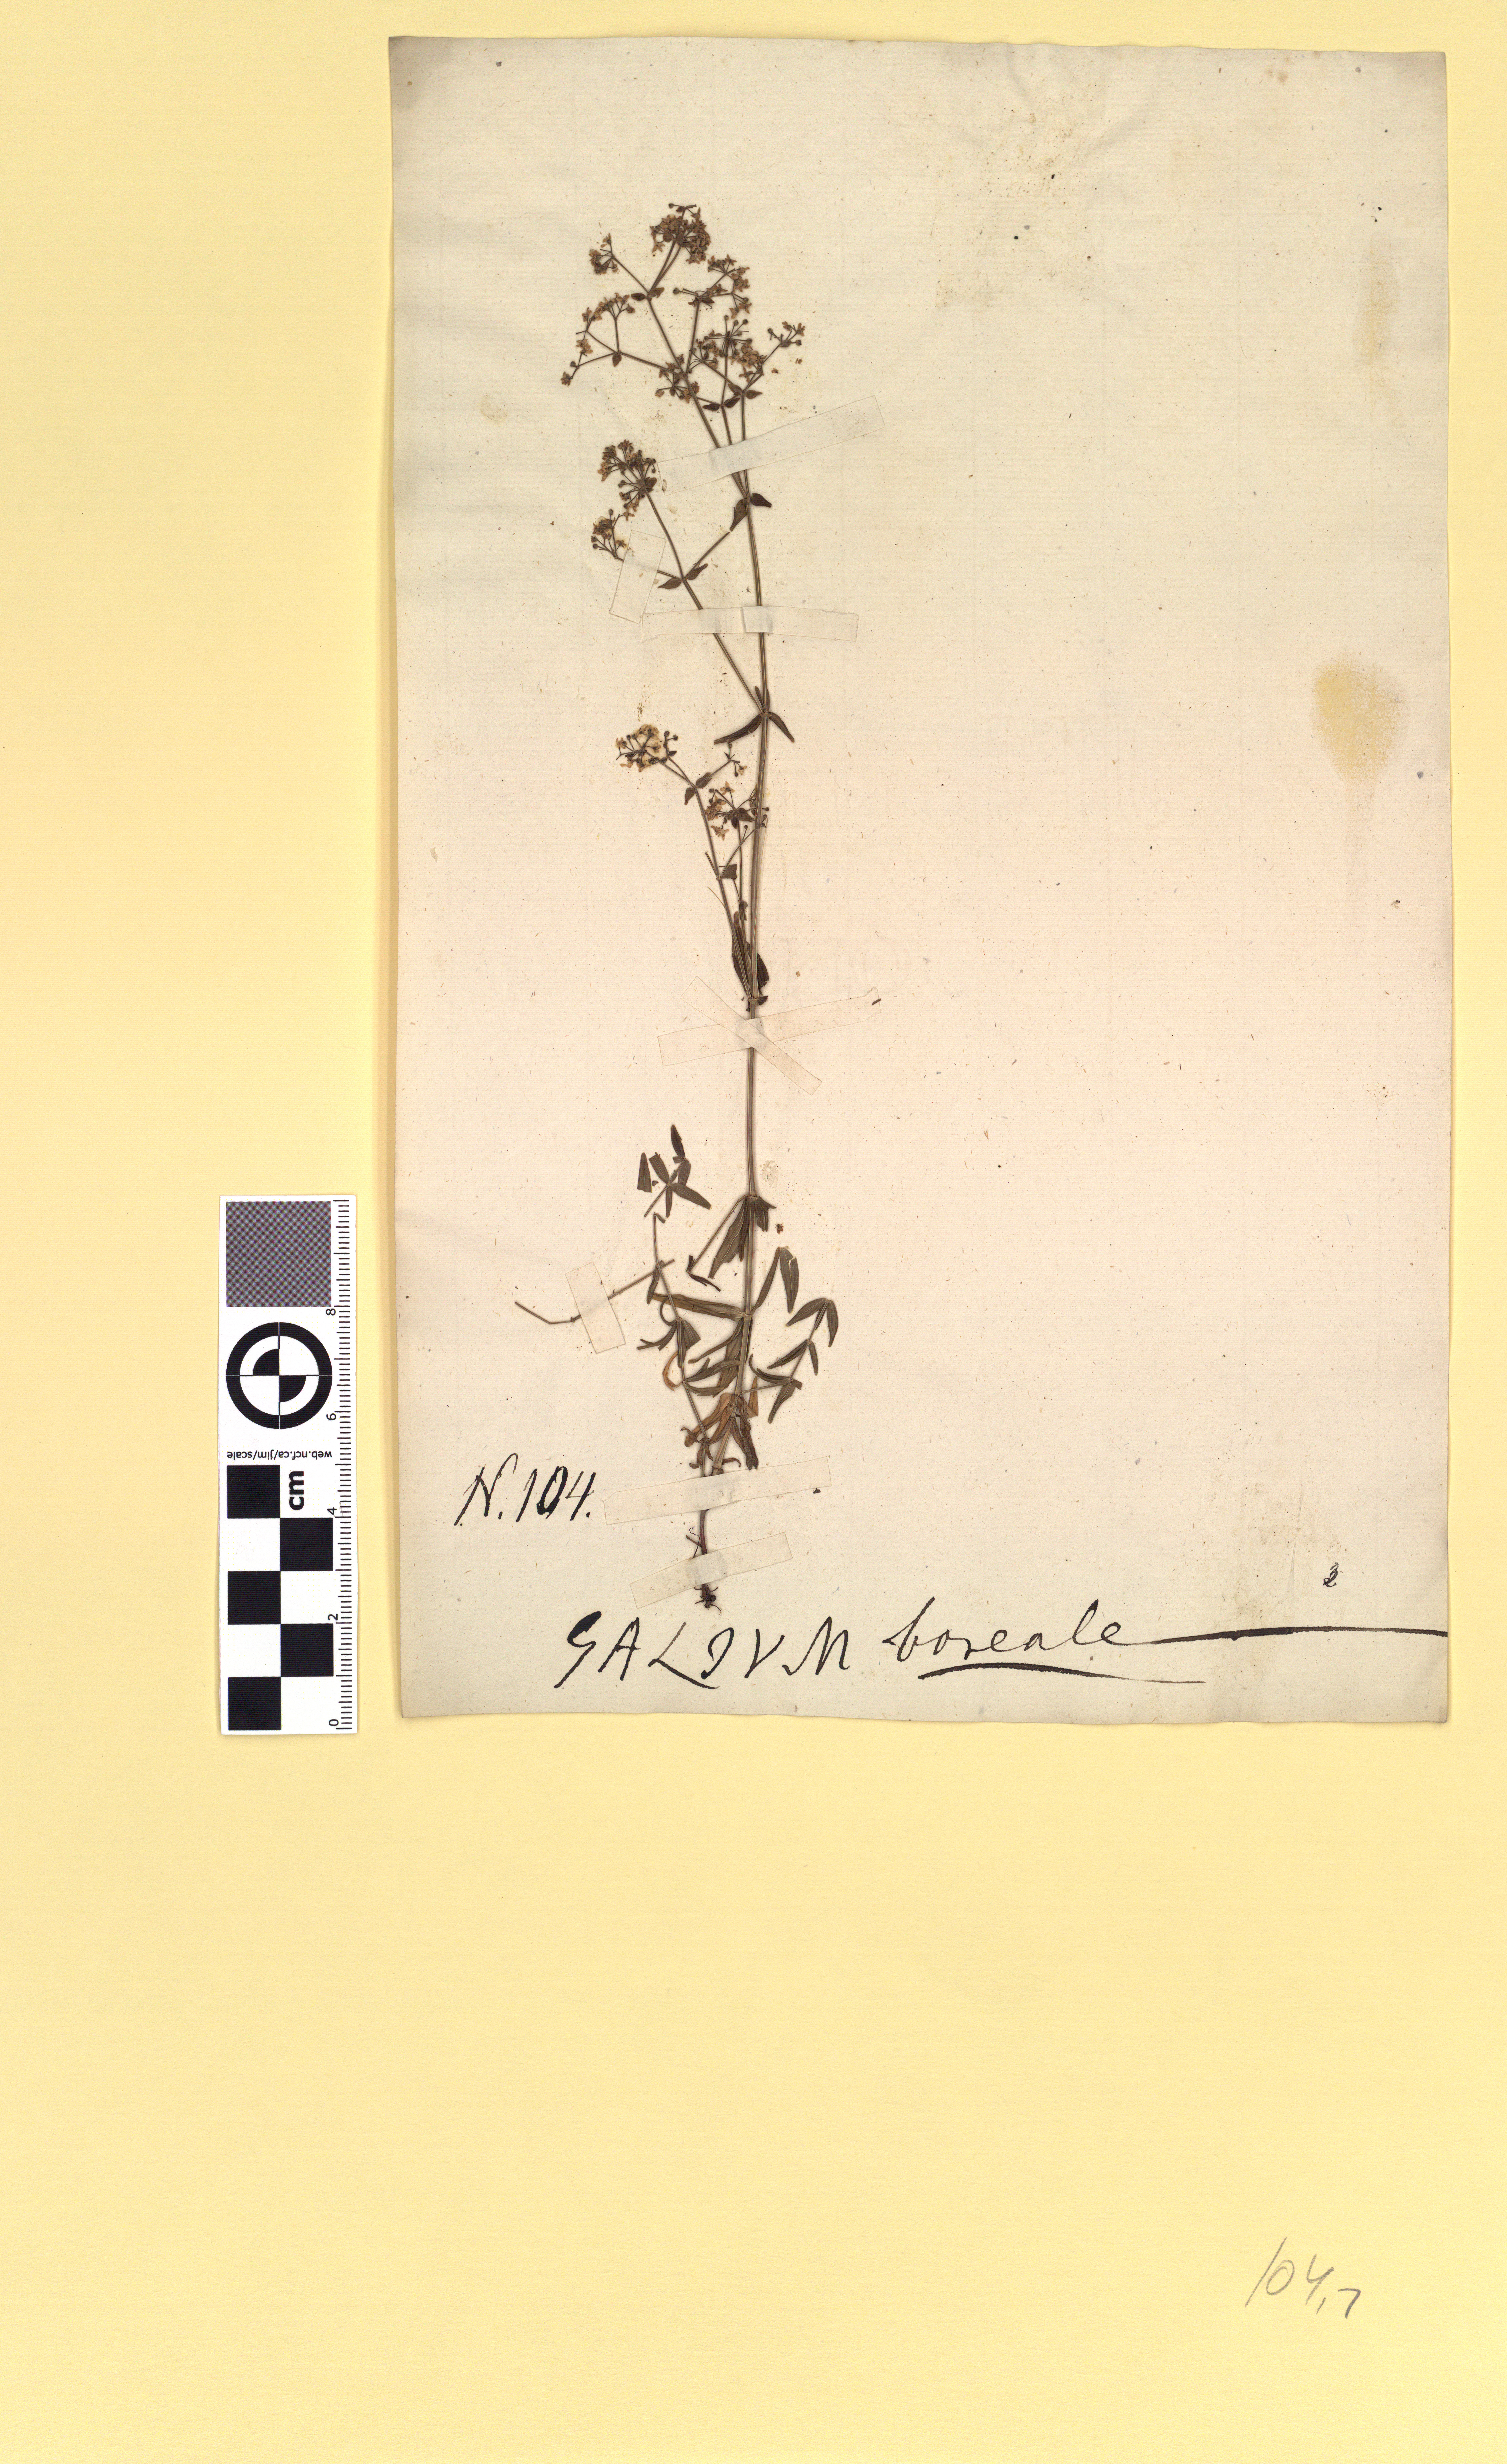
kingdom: Plantae
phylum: Tracheophyta
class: Magnoliopsida
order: Gentianales
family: Rubiaceae
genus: Galium
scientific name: Galium boreale
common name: Northern bedstraw
